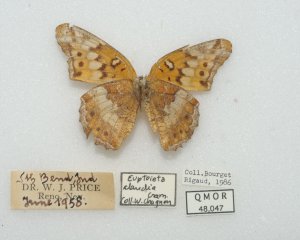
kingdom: Animalia
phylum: Arthropoda
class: Insecta
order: Lepidoptera
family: Nymphalidae
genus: Euptoieta
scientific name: Euptoieta claudia
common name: Variegated Fritillary
